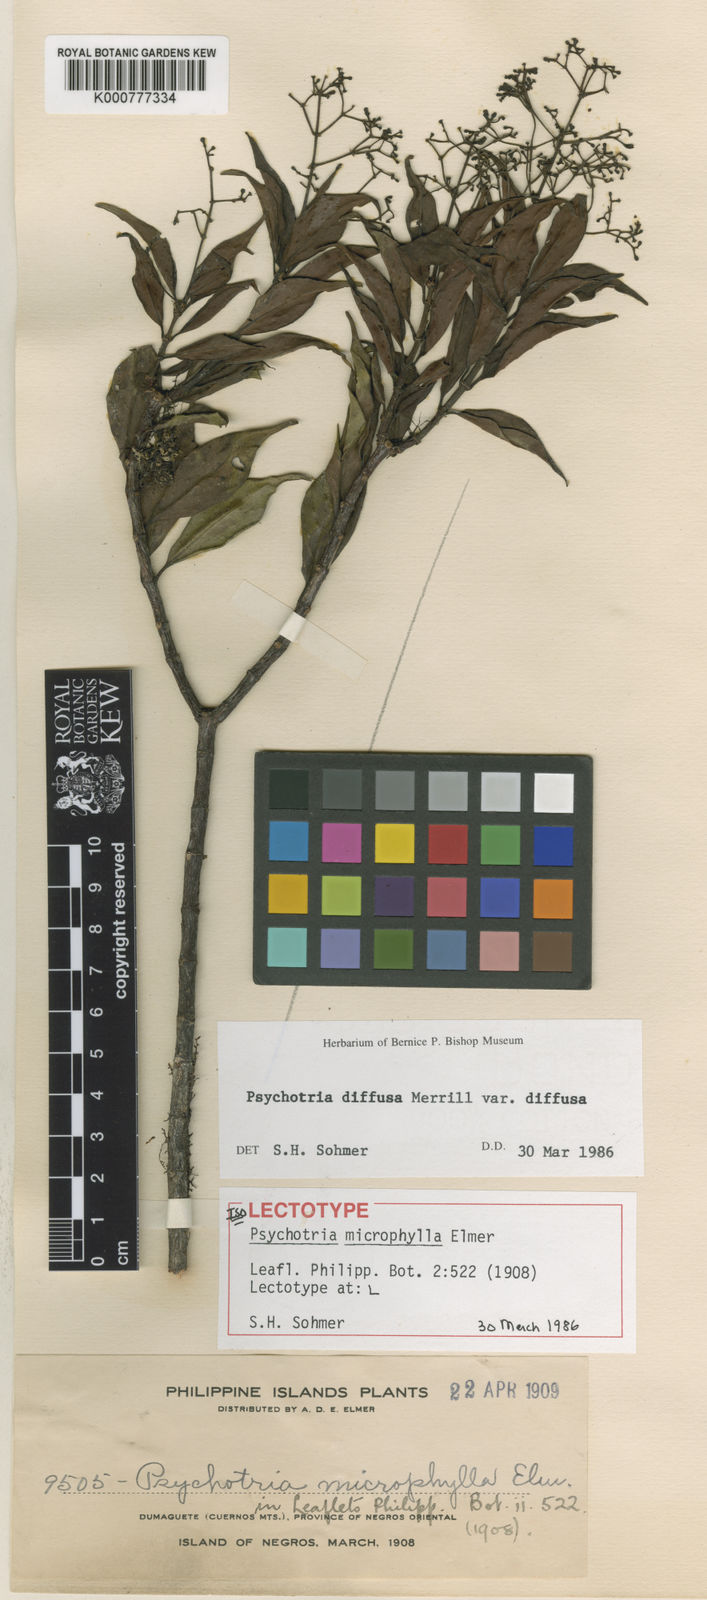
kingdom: Plantae
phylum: Tracheophyta
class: Magnoliopsida
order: Gentianales
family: Rubiaceae
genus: Psychotria
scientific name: Psychotria diffusa
